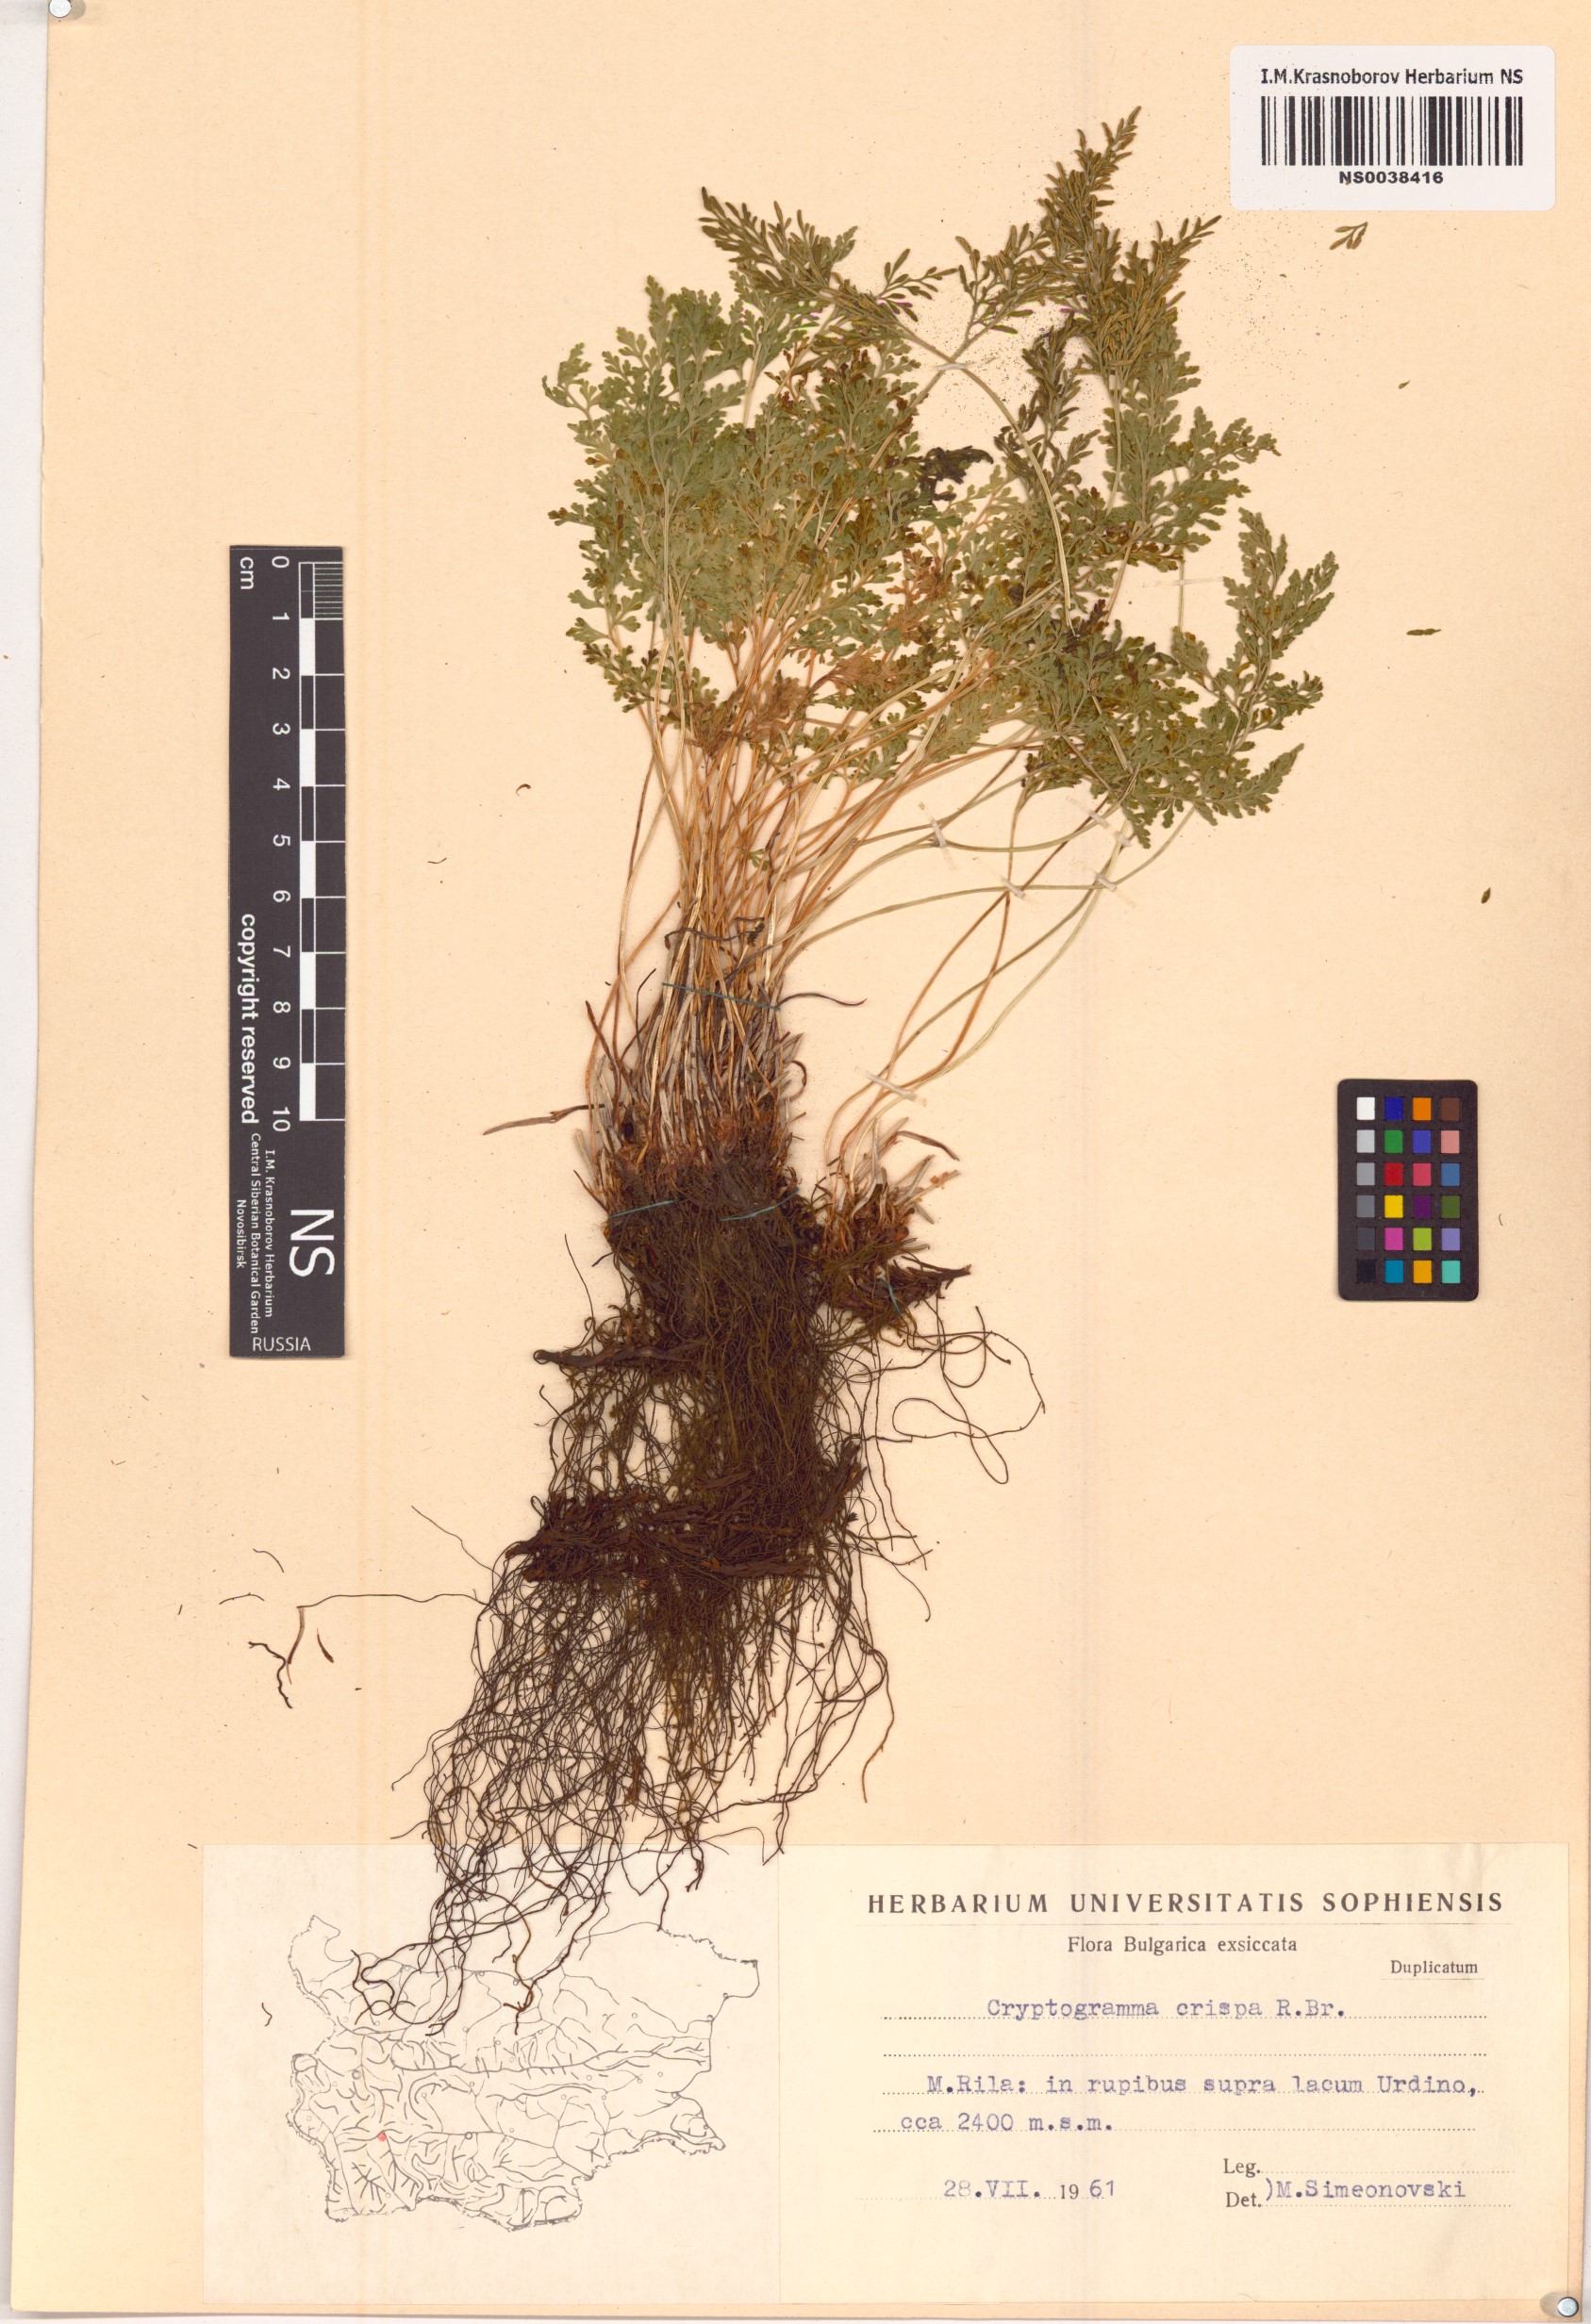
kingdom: Plantae
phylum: Tracheophyta
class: Polypodiopsida
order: Polypodiales
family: Pteridaceae
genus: Cryptogramma
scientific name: Cryptogramma crispa
